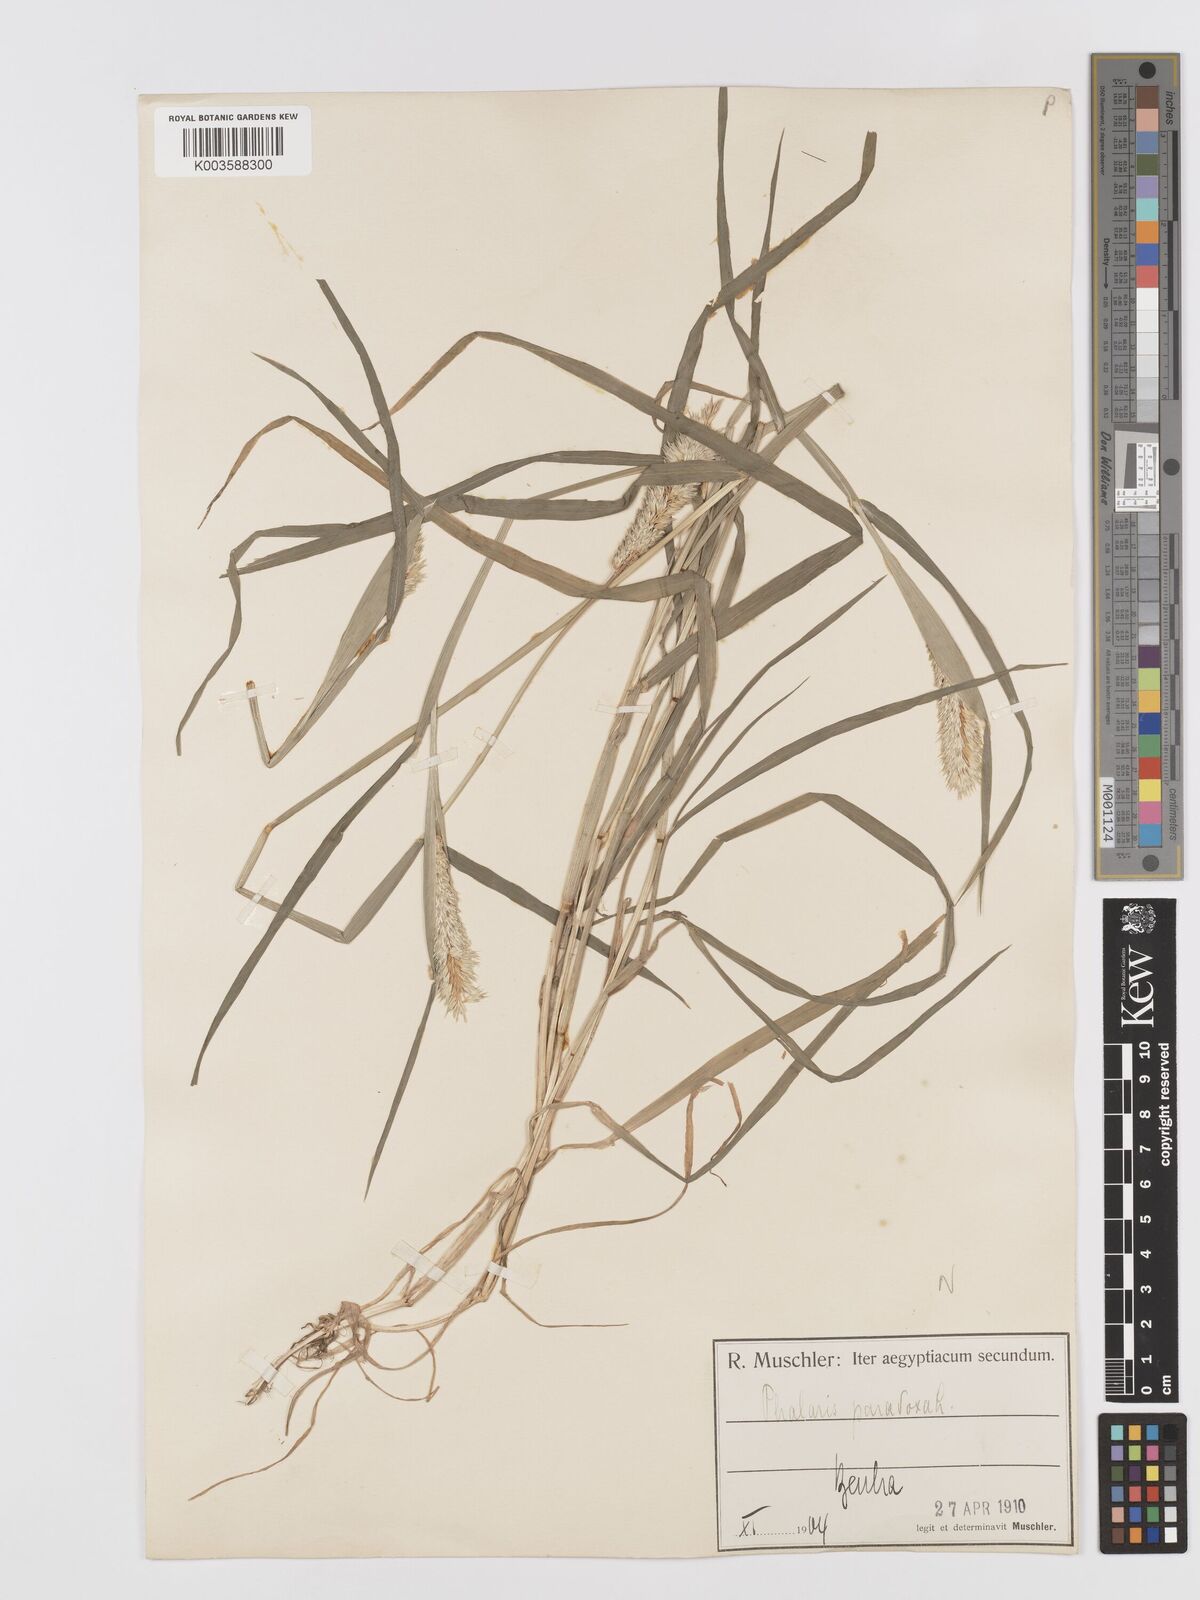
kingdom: Plantae
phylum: Tracheophyta
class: Liliopsida
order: Poales
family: Poaceae
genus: Phalaris
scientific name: Phalaris paradoxa
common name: Awned canary-grass
